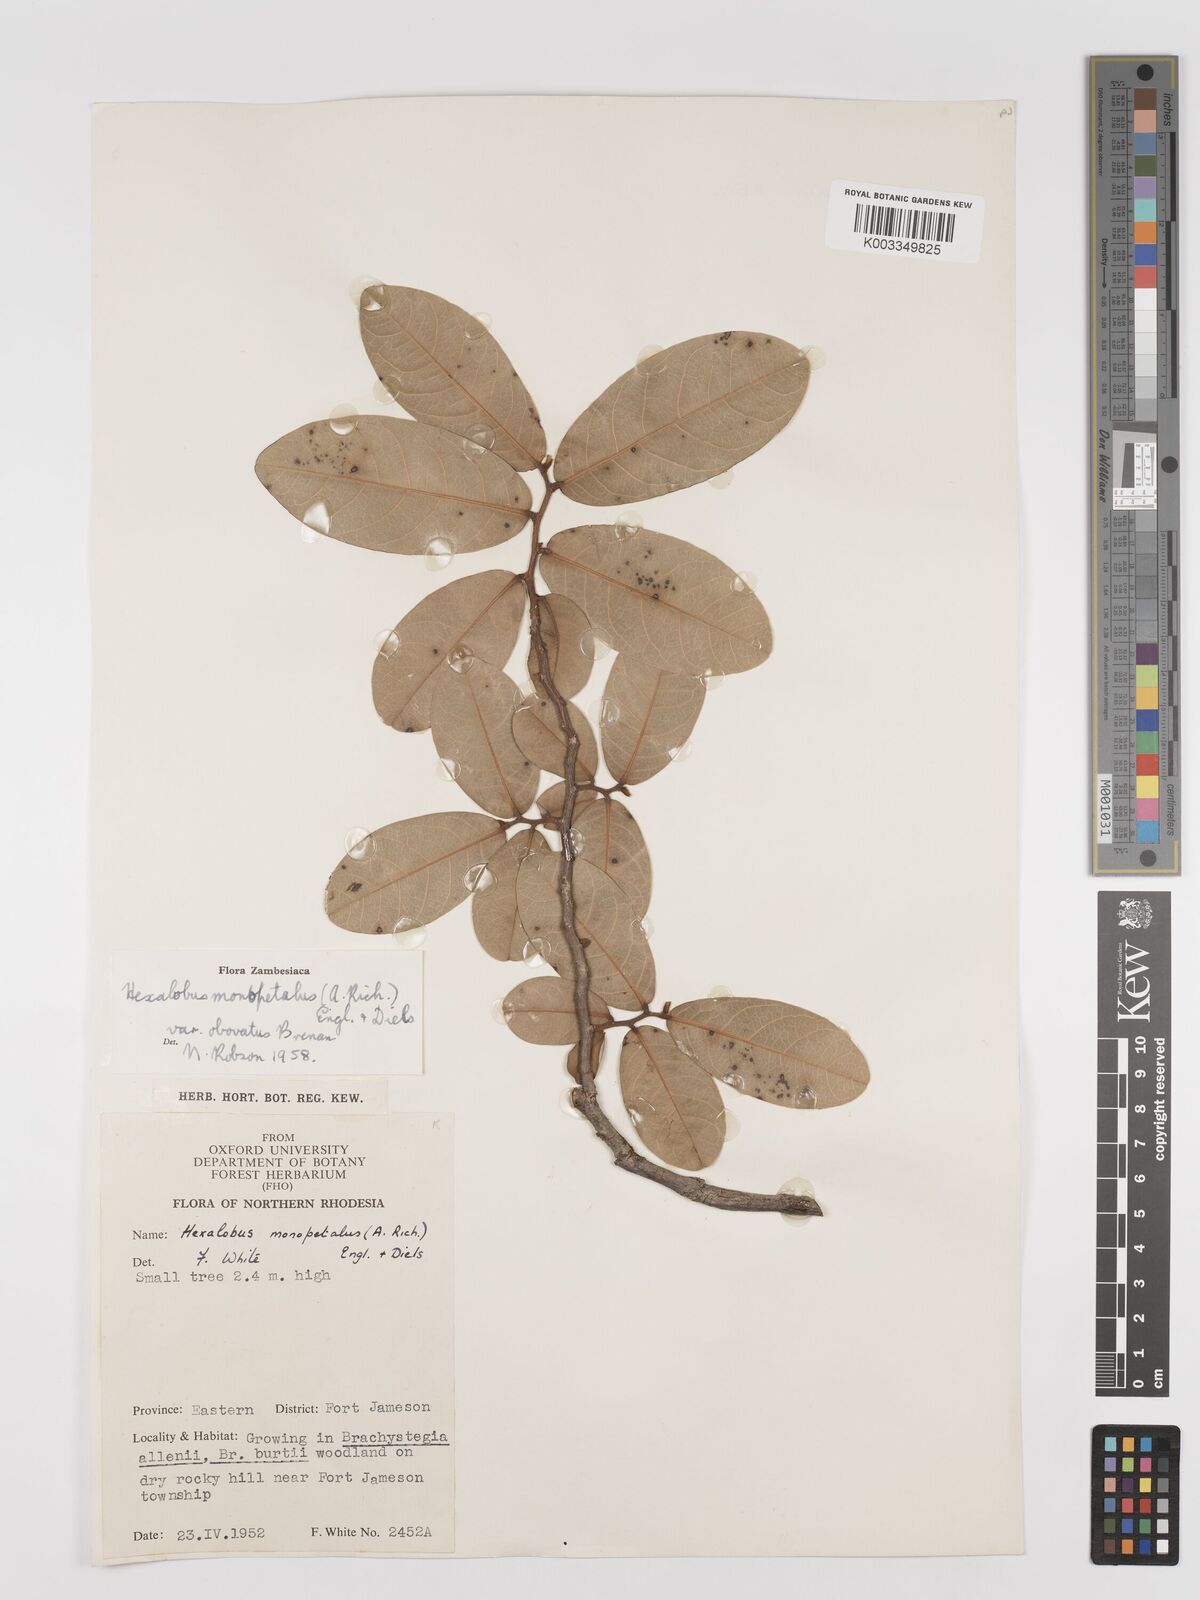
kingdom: Plantae
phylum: Tracheophyta
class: Magnoliopsida
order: Magnoliales
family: Annonaceae
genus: Hexalobus
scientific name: Hexalobus monopetalus
